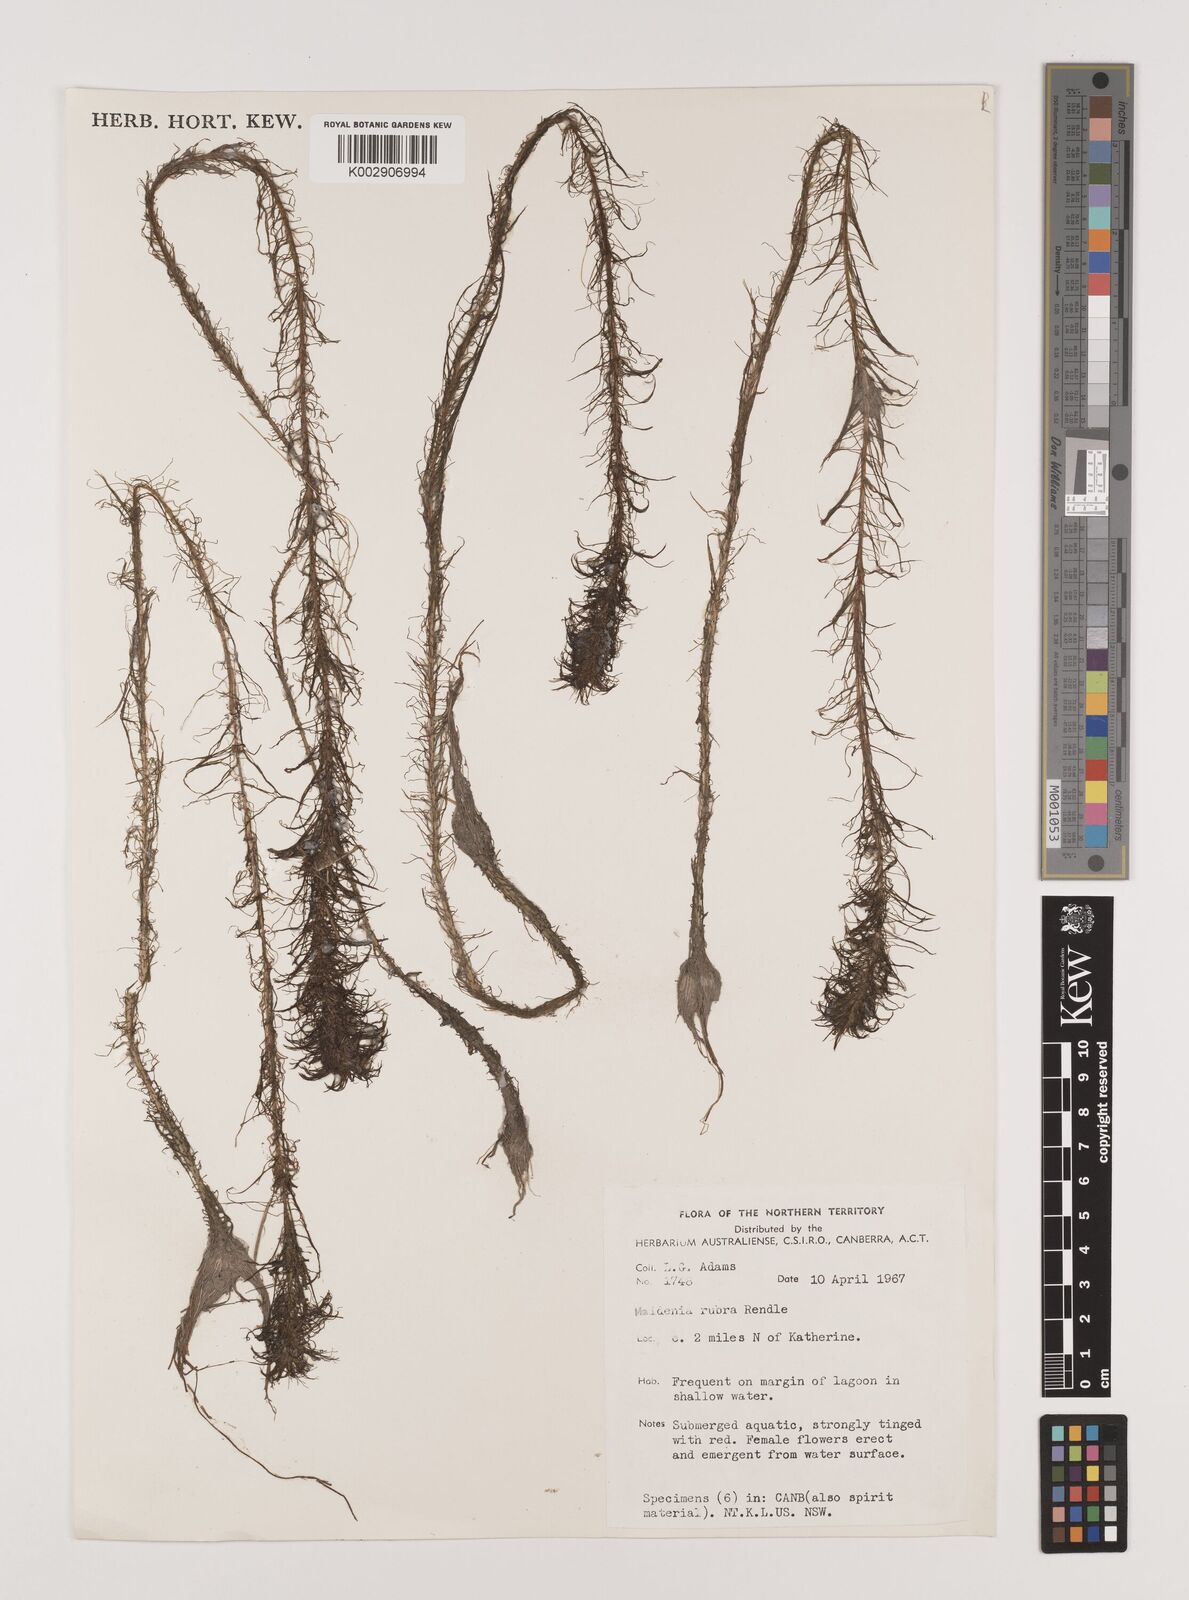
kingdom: Plantae
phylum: Tracheophyta
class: Liliopsida
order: Alismatales
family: Hydrocharitaceae
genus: Vallisneria
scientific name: Vallisneria rubra
